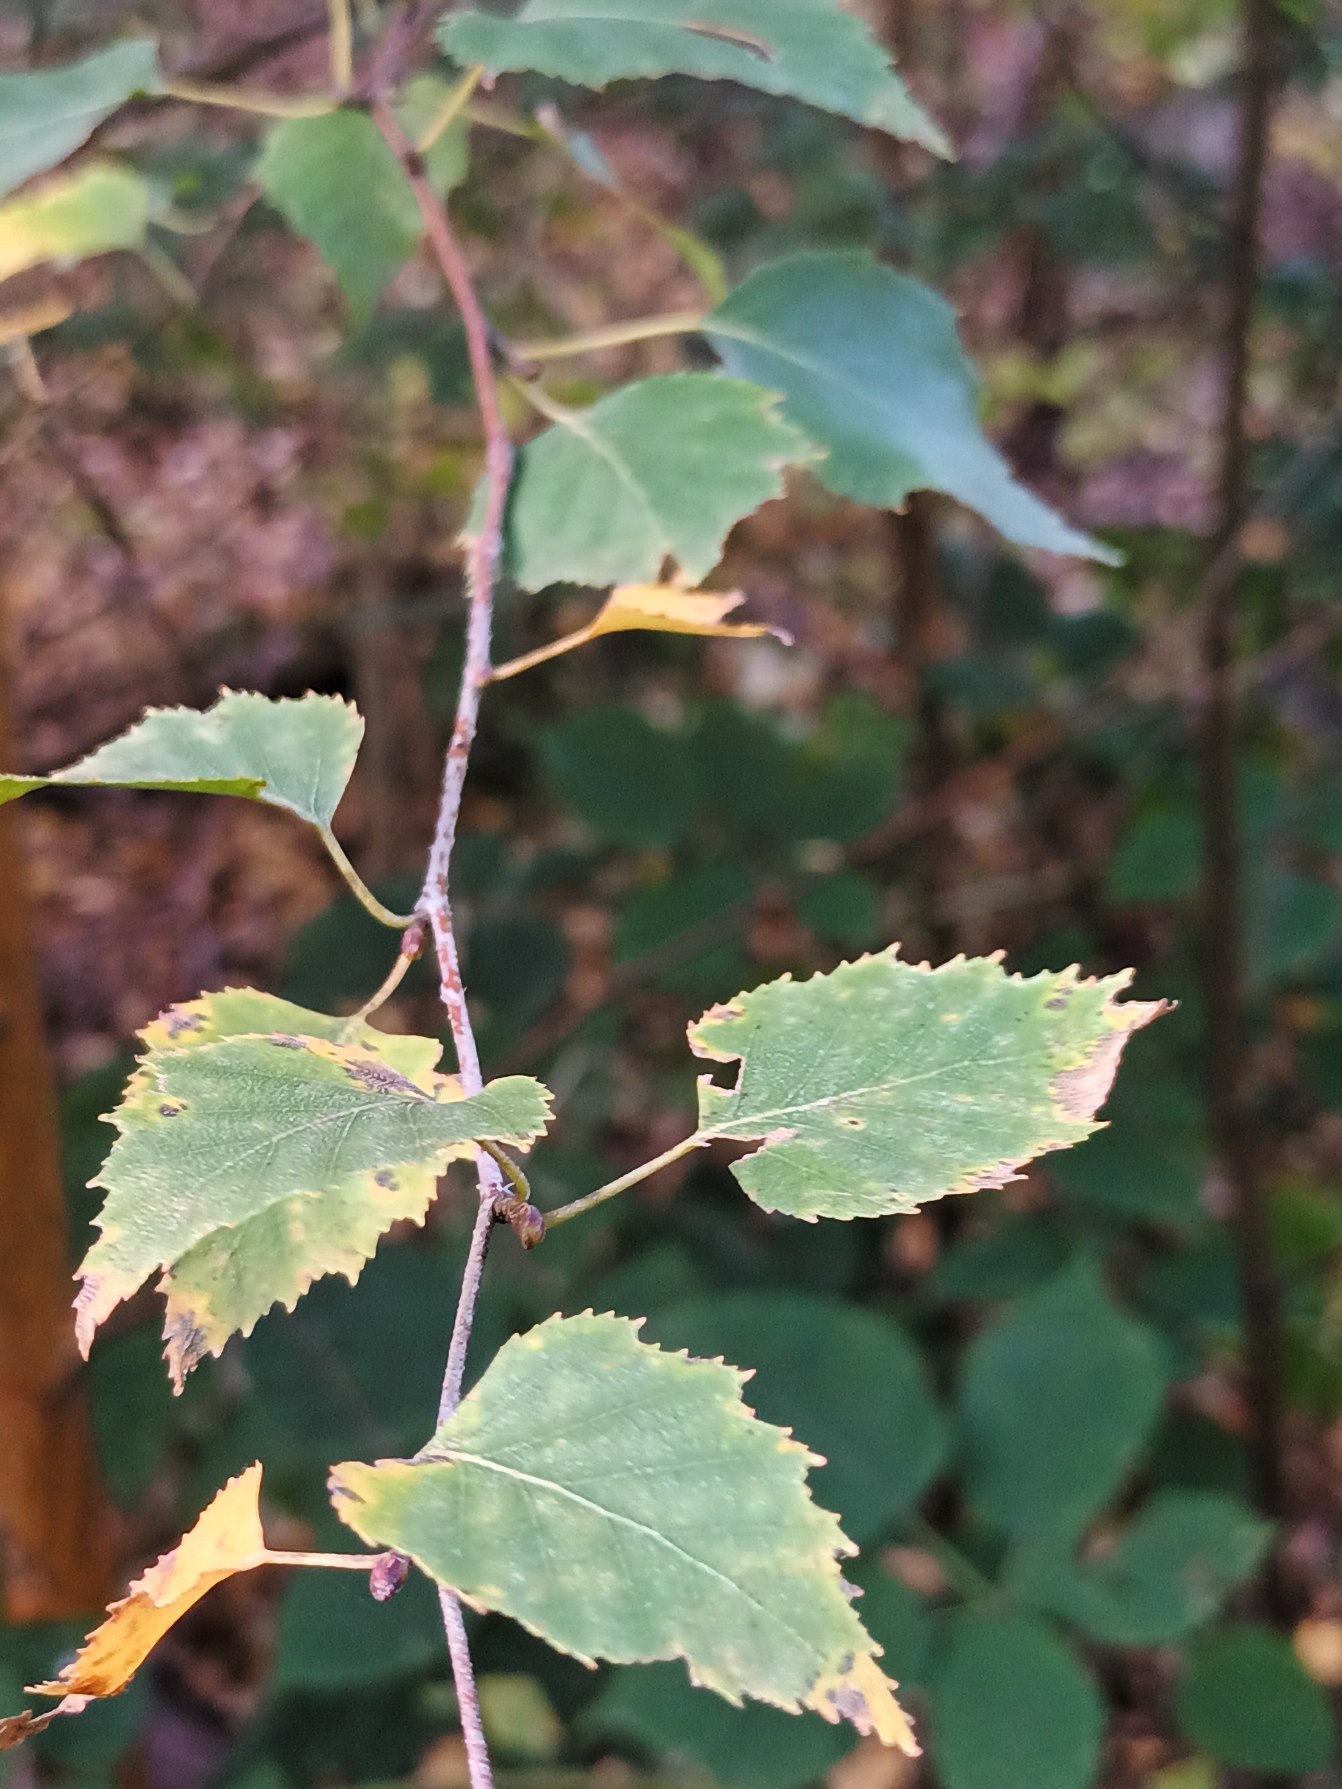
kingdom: Plantae
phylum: Tracheophyta
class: Magnoliopsida
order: Fagales
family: Betulaceae
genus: Betula
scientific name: Betula pendula
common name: Vorte-birk
